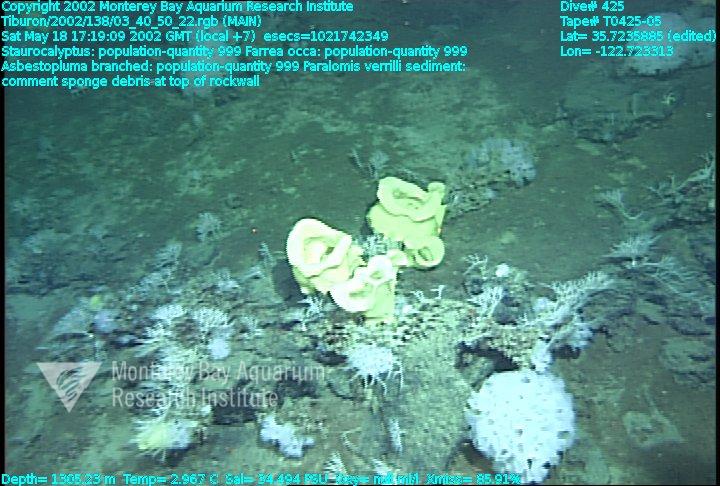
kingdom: Animalia
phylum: Porifera
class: Hexactinellida
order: Sceptrulophora
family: Farreidae
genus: Farrea
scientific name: Farrea occa
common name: Reversed glass sponge
